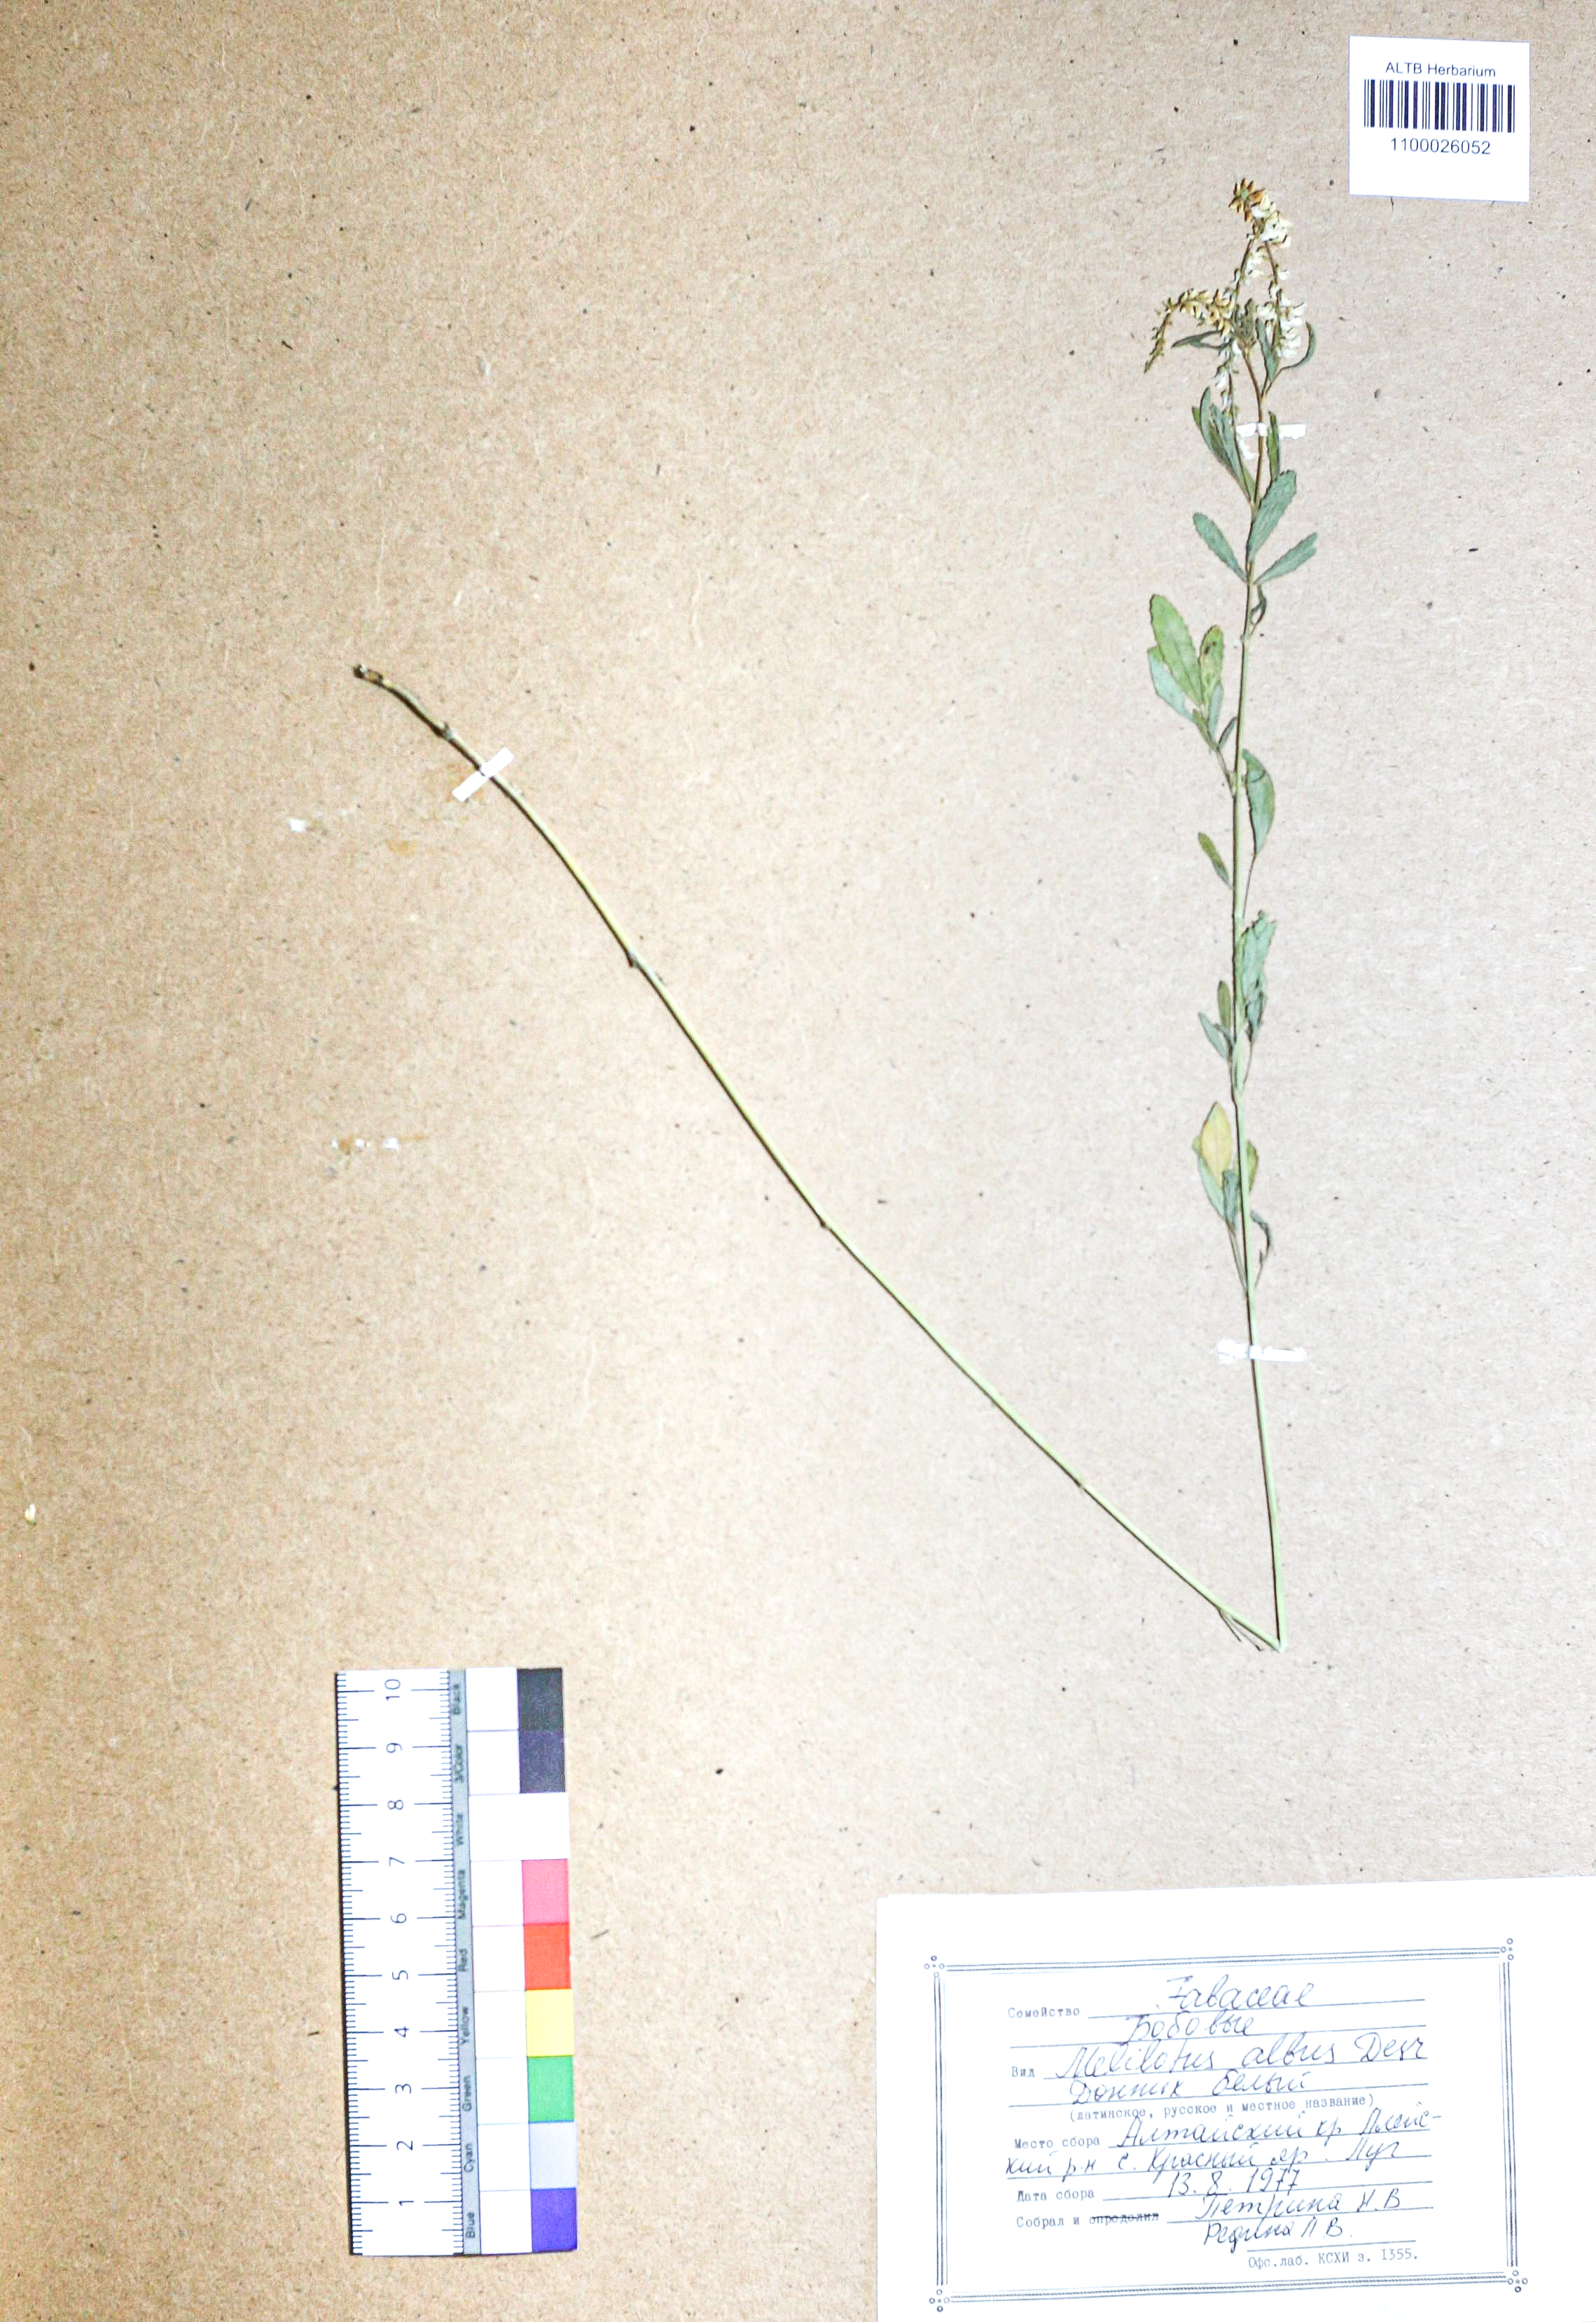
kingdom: Plantae
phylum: Tracheophyta
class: Magnoliopsida
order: Fabales
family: Fabaceae
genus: Melilotus
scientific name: Melilotus albus
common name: White melilot
